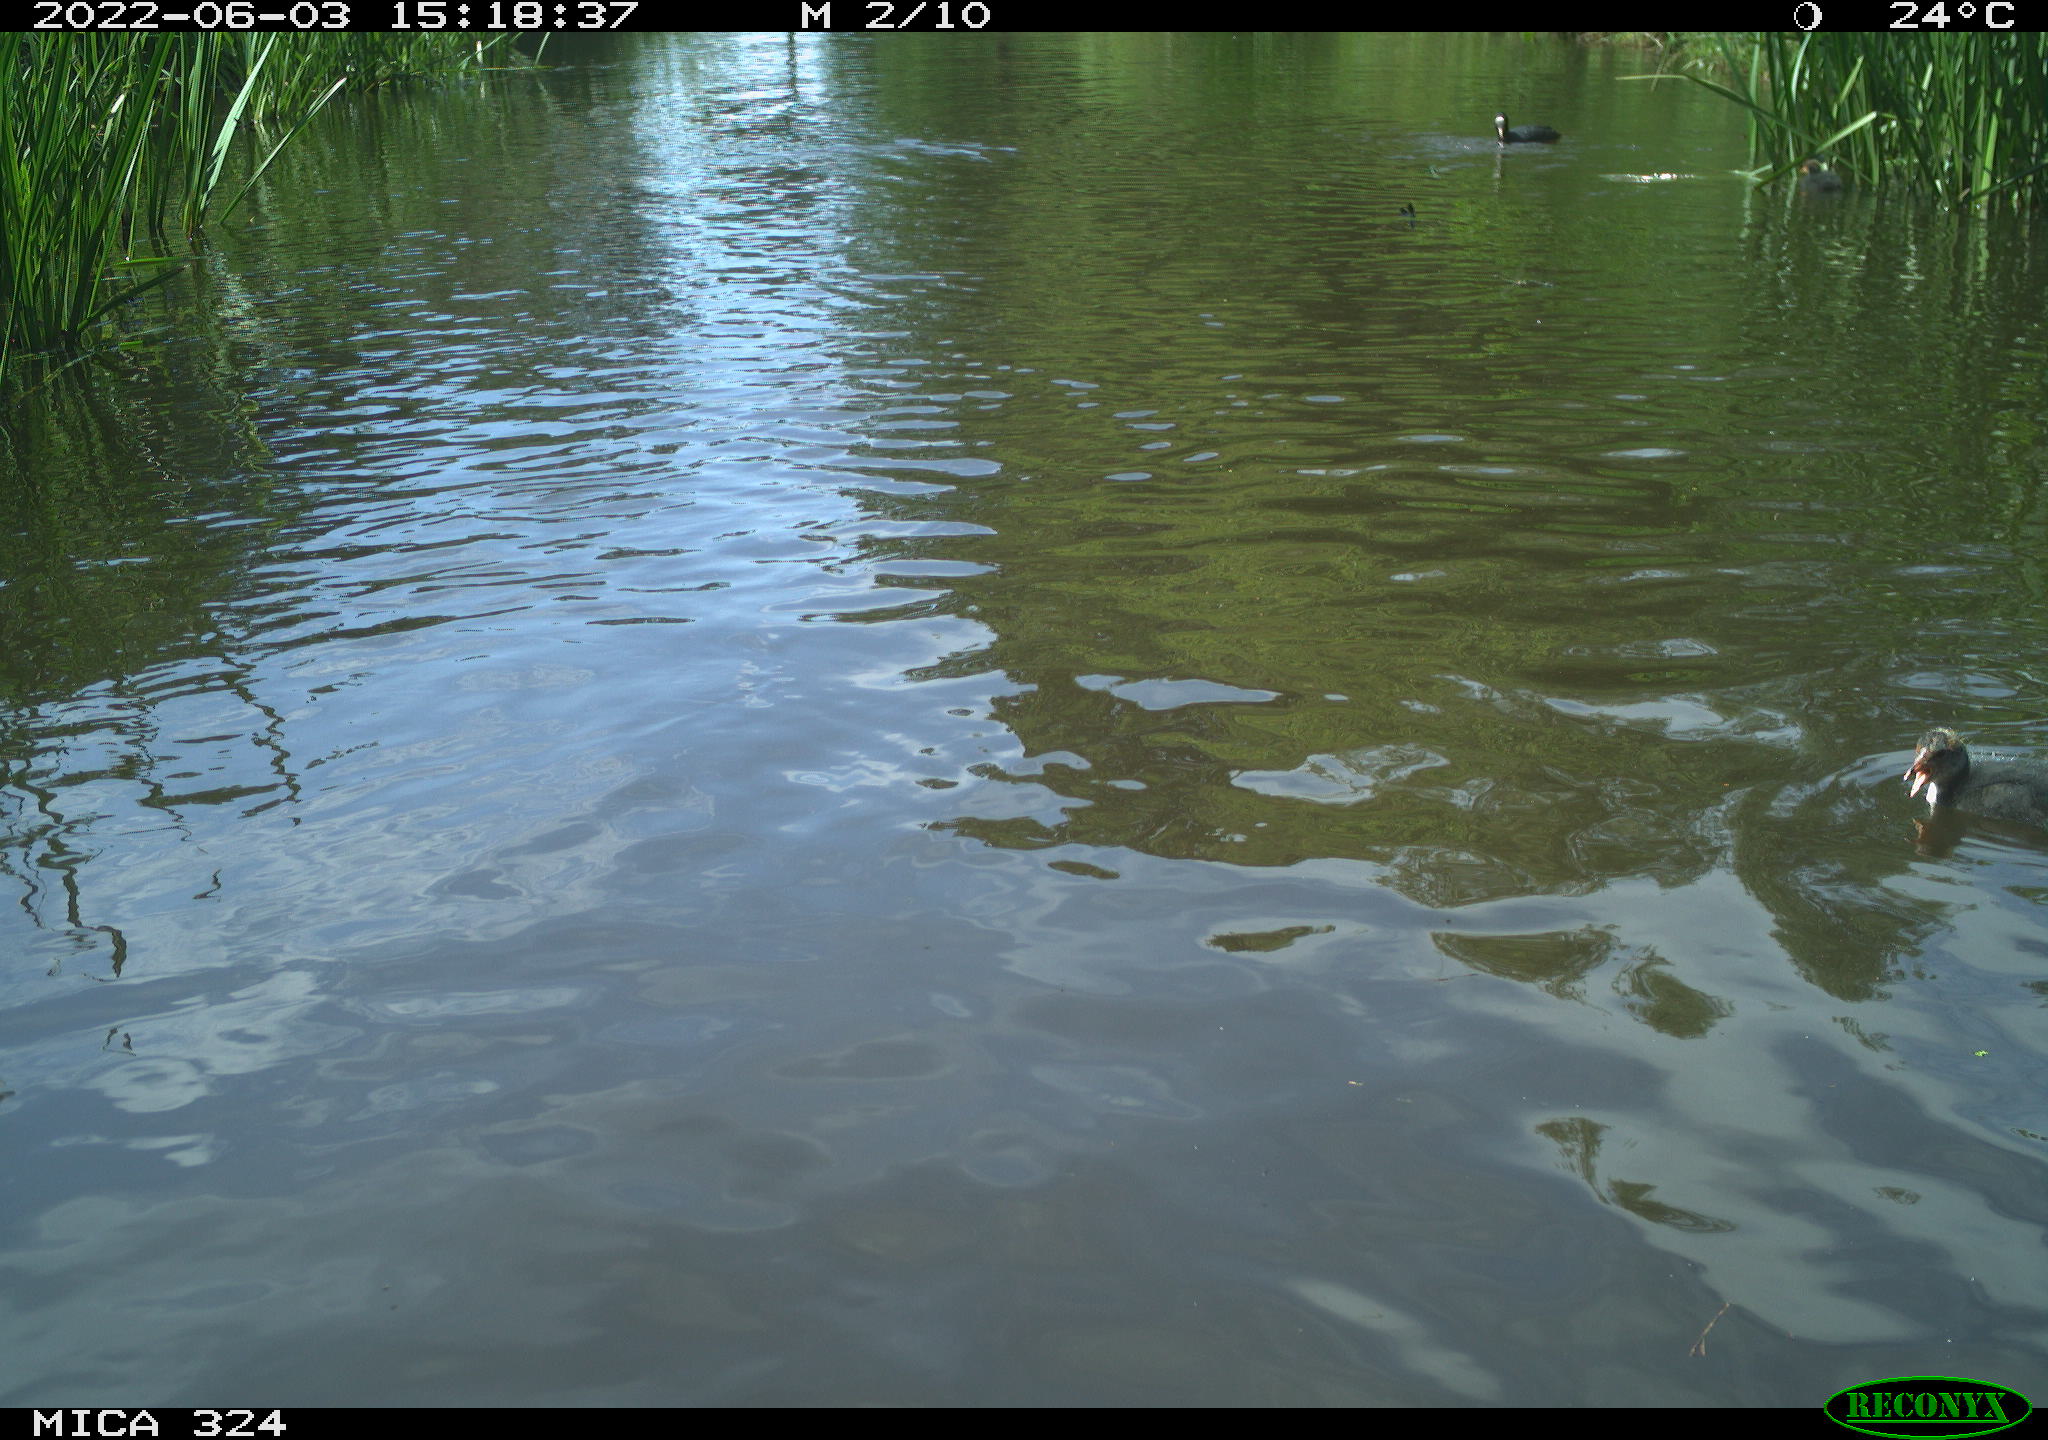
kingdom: Animalia
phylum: Chordata
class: Aves
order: Gruiformes
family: Rallidae
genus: Fulica
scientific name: Fulica atra
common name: Eurasian coot
